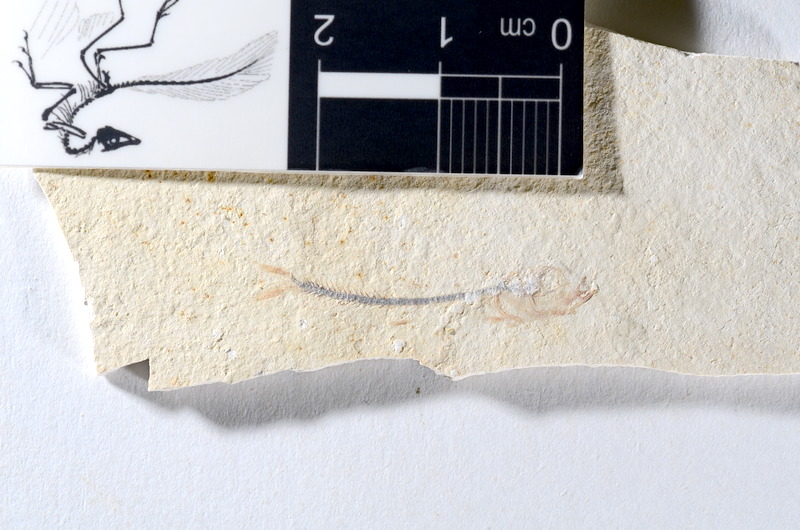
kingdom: Animalia
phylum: Chordata
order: Salmoniformes
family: Orthogonikleithridae
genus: Orthogonikleithrus
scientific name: Orthogonikleithrus hoelli
